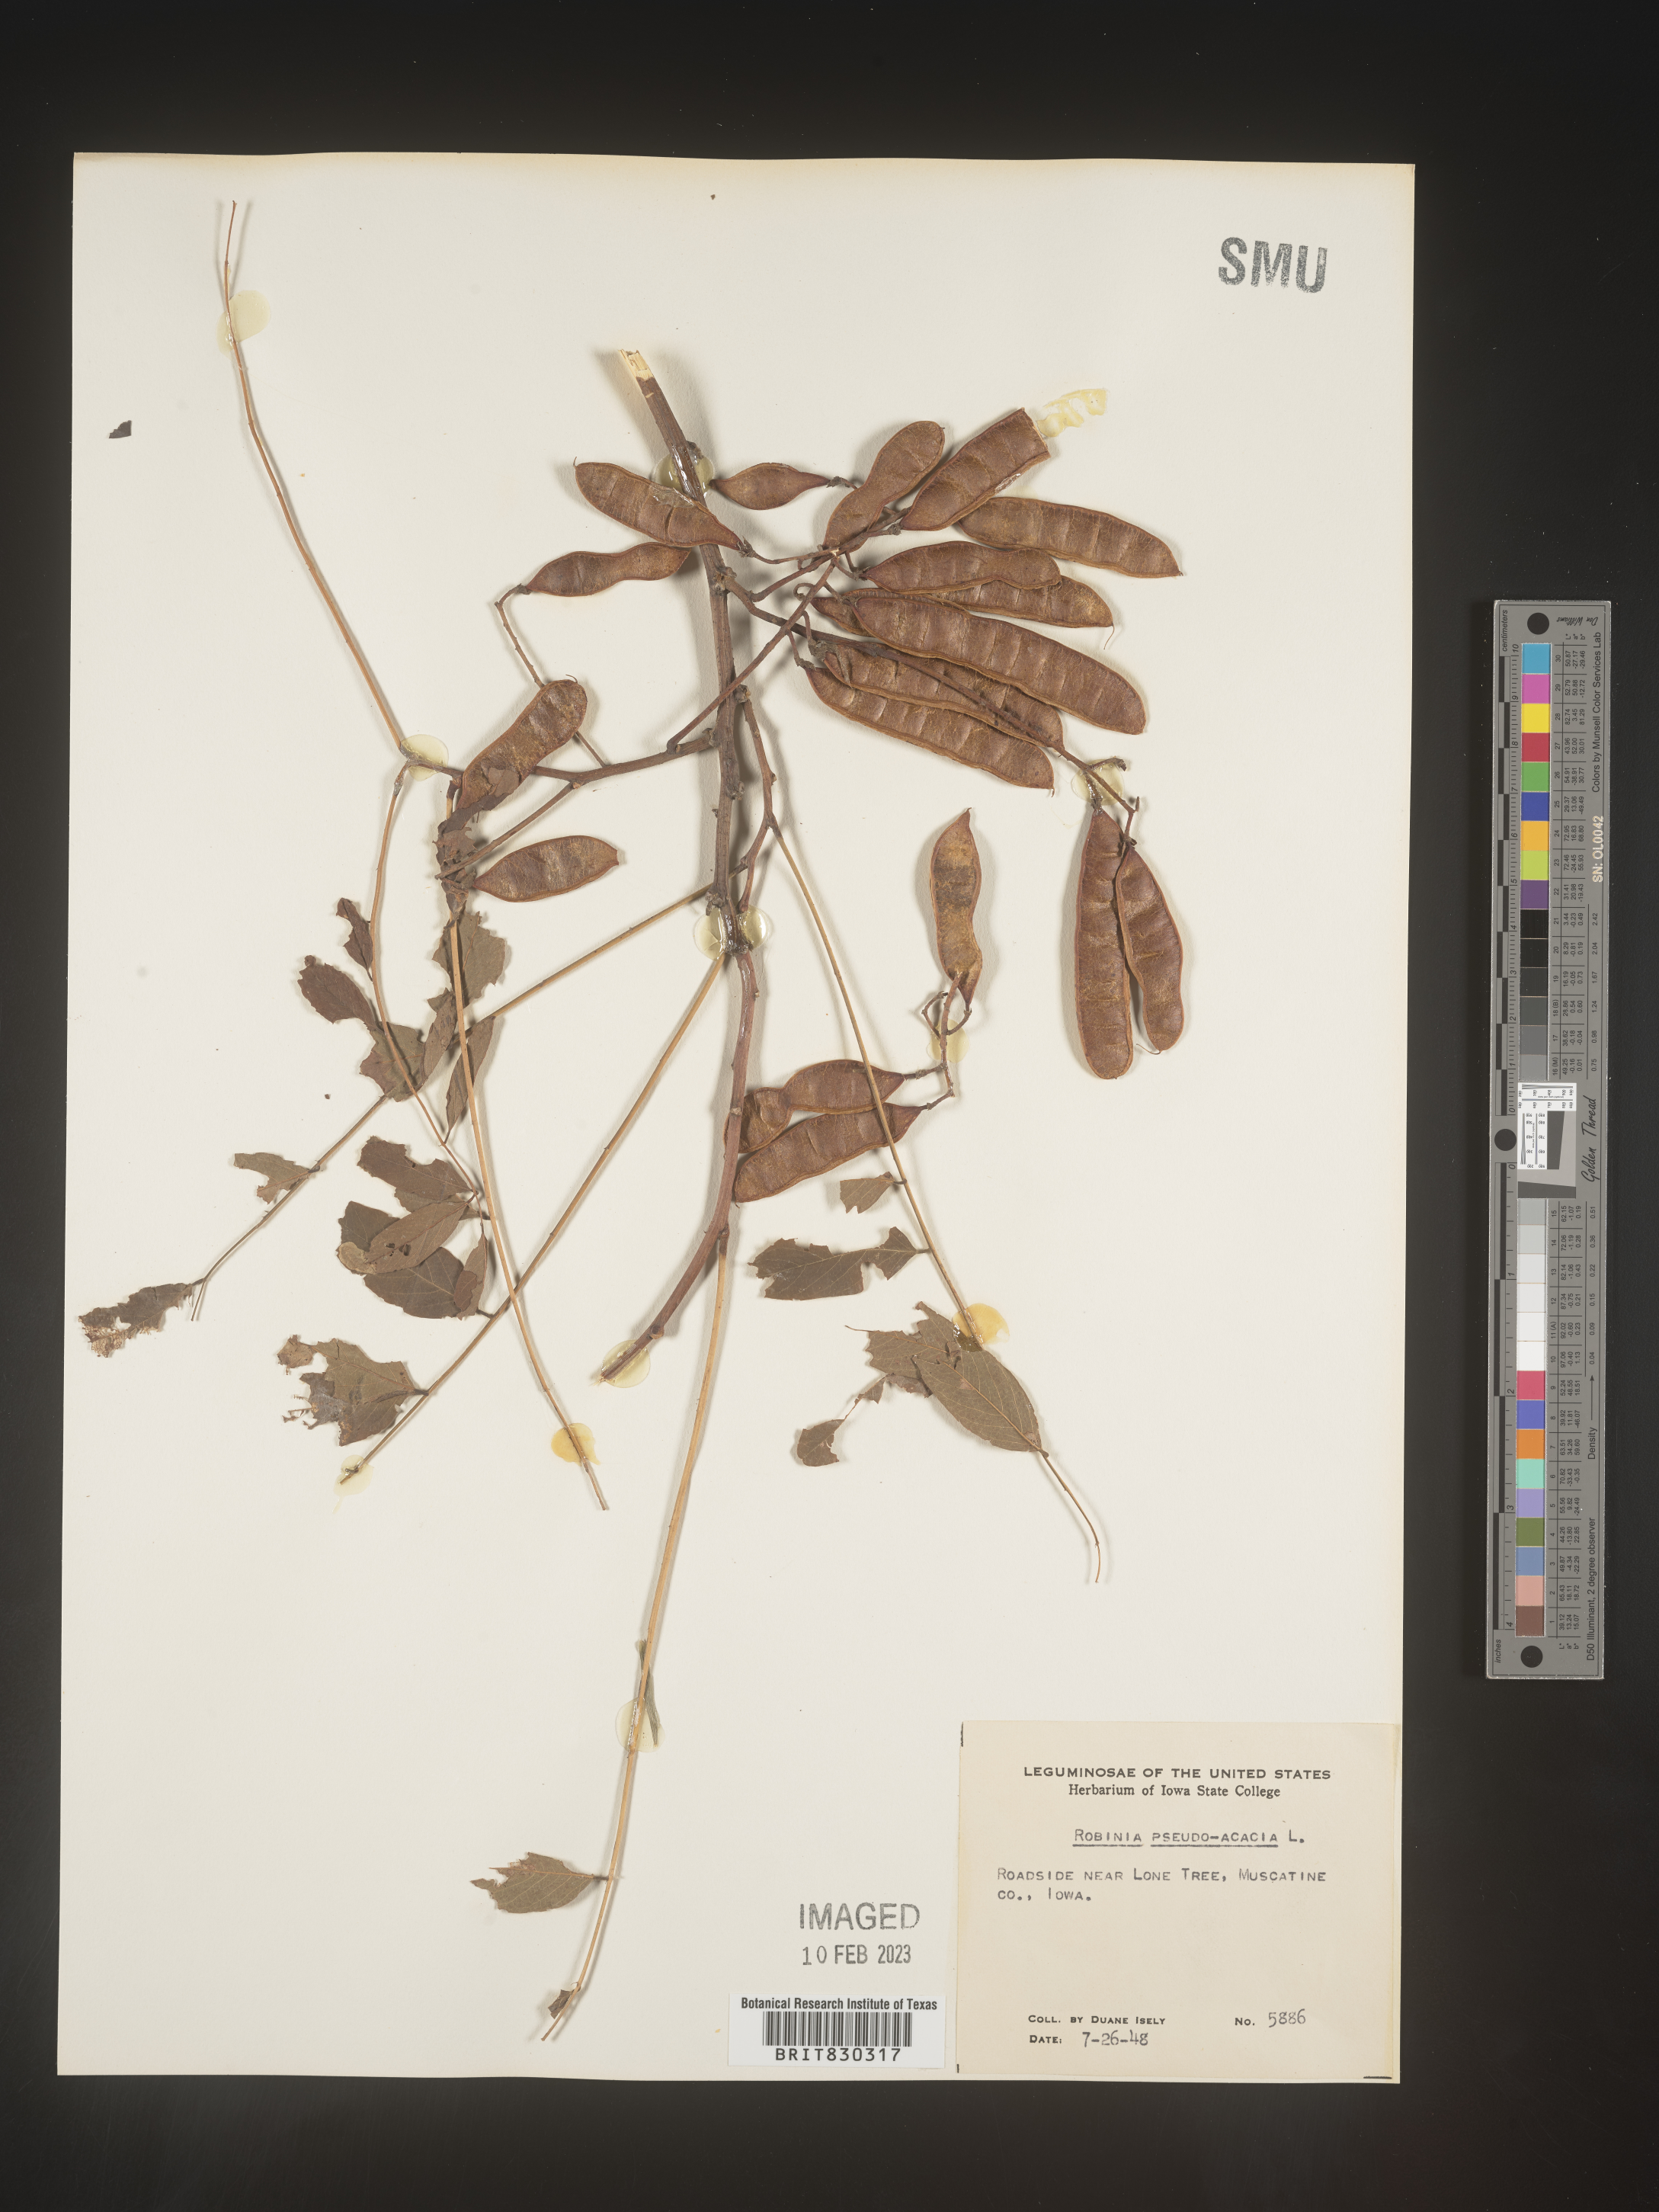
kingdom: Plantae
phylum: Tracheophyta
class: Magnoliopsida
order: Fabales
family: Fabaceae
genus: Robinia
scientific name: Robinia pseudoacacia
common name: Black locust
